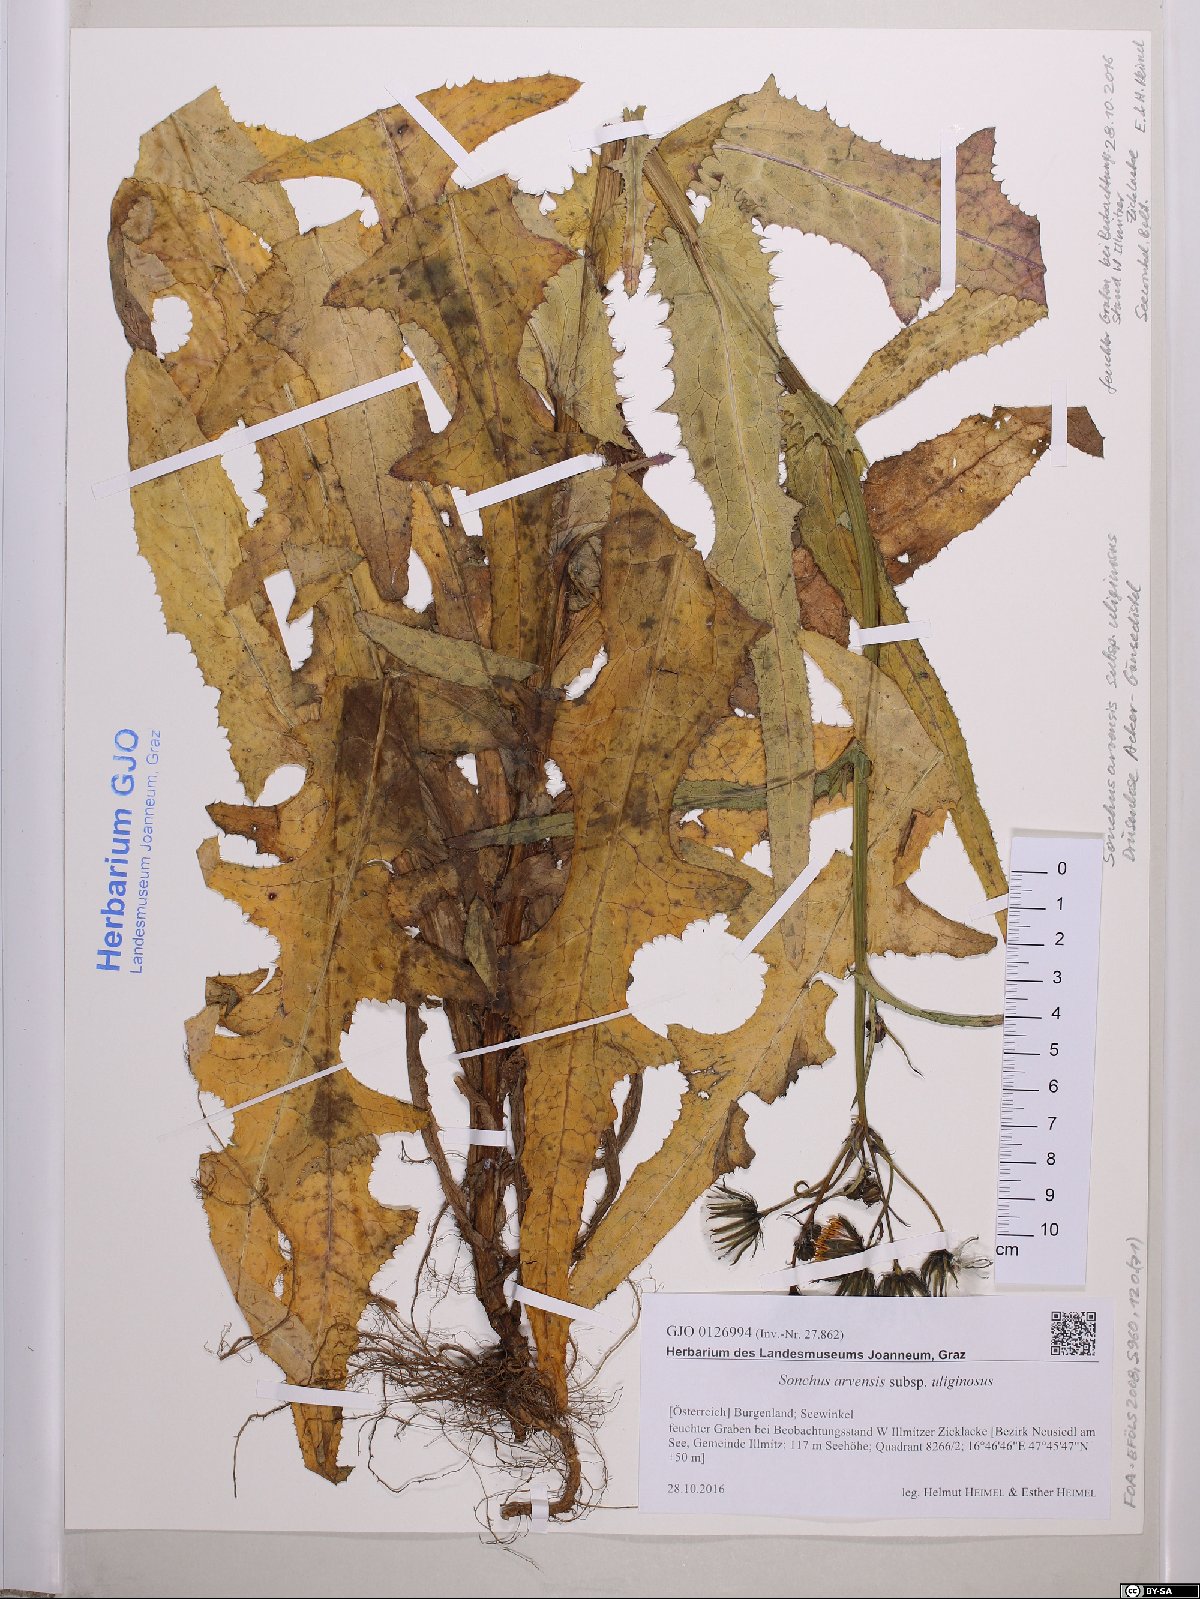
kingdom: Plantae
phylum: Tracheophyta
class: Magnoliopsida
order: Asterales
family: Asteraceae
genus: Sonchus
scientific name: Sonchus arvensis
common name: Perennial sow-thistle
